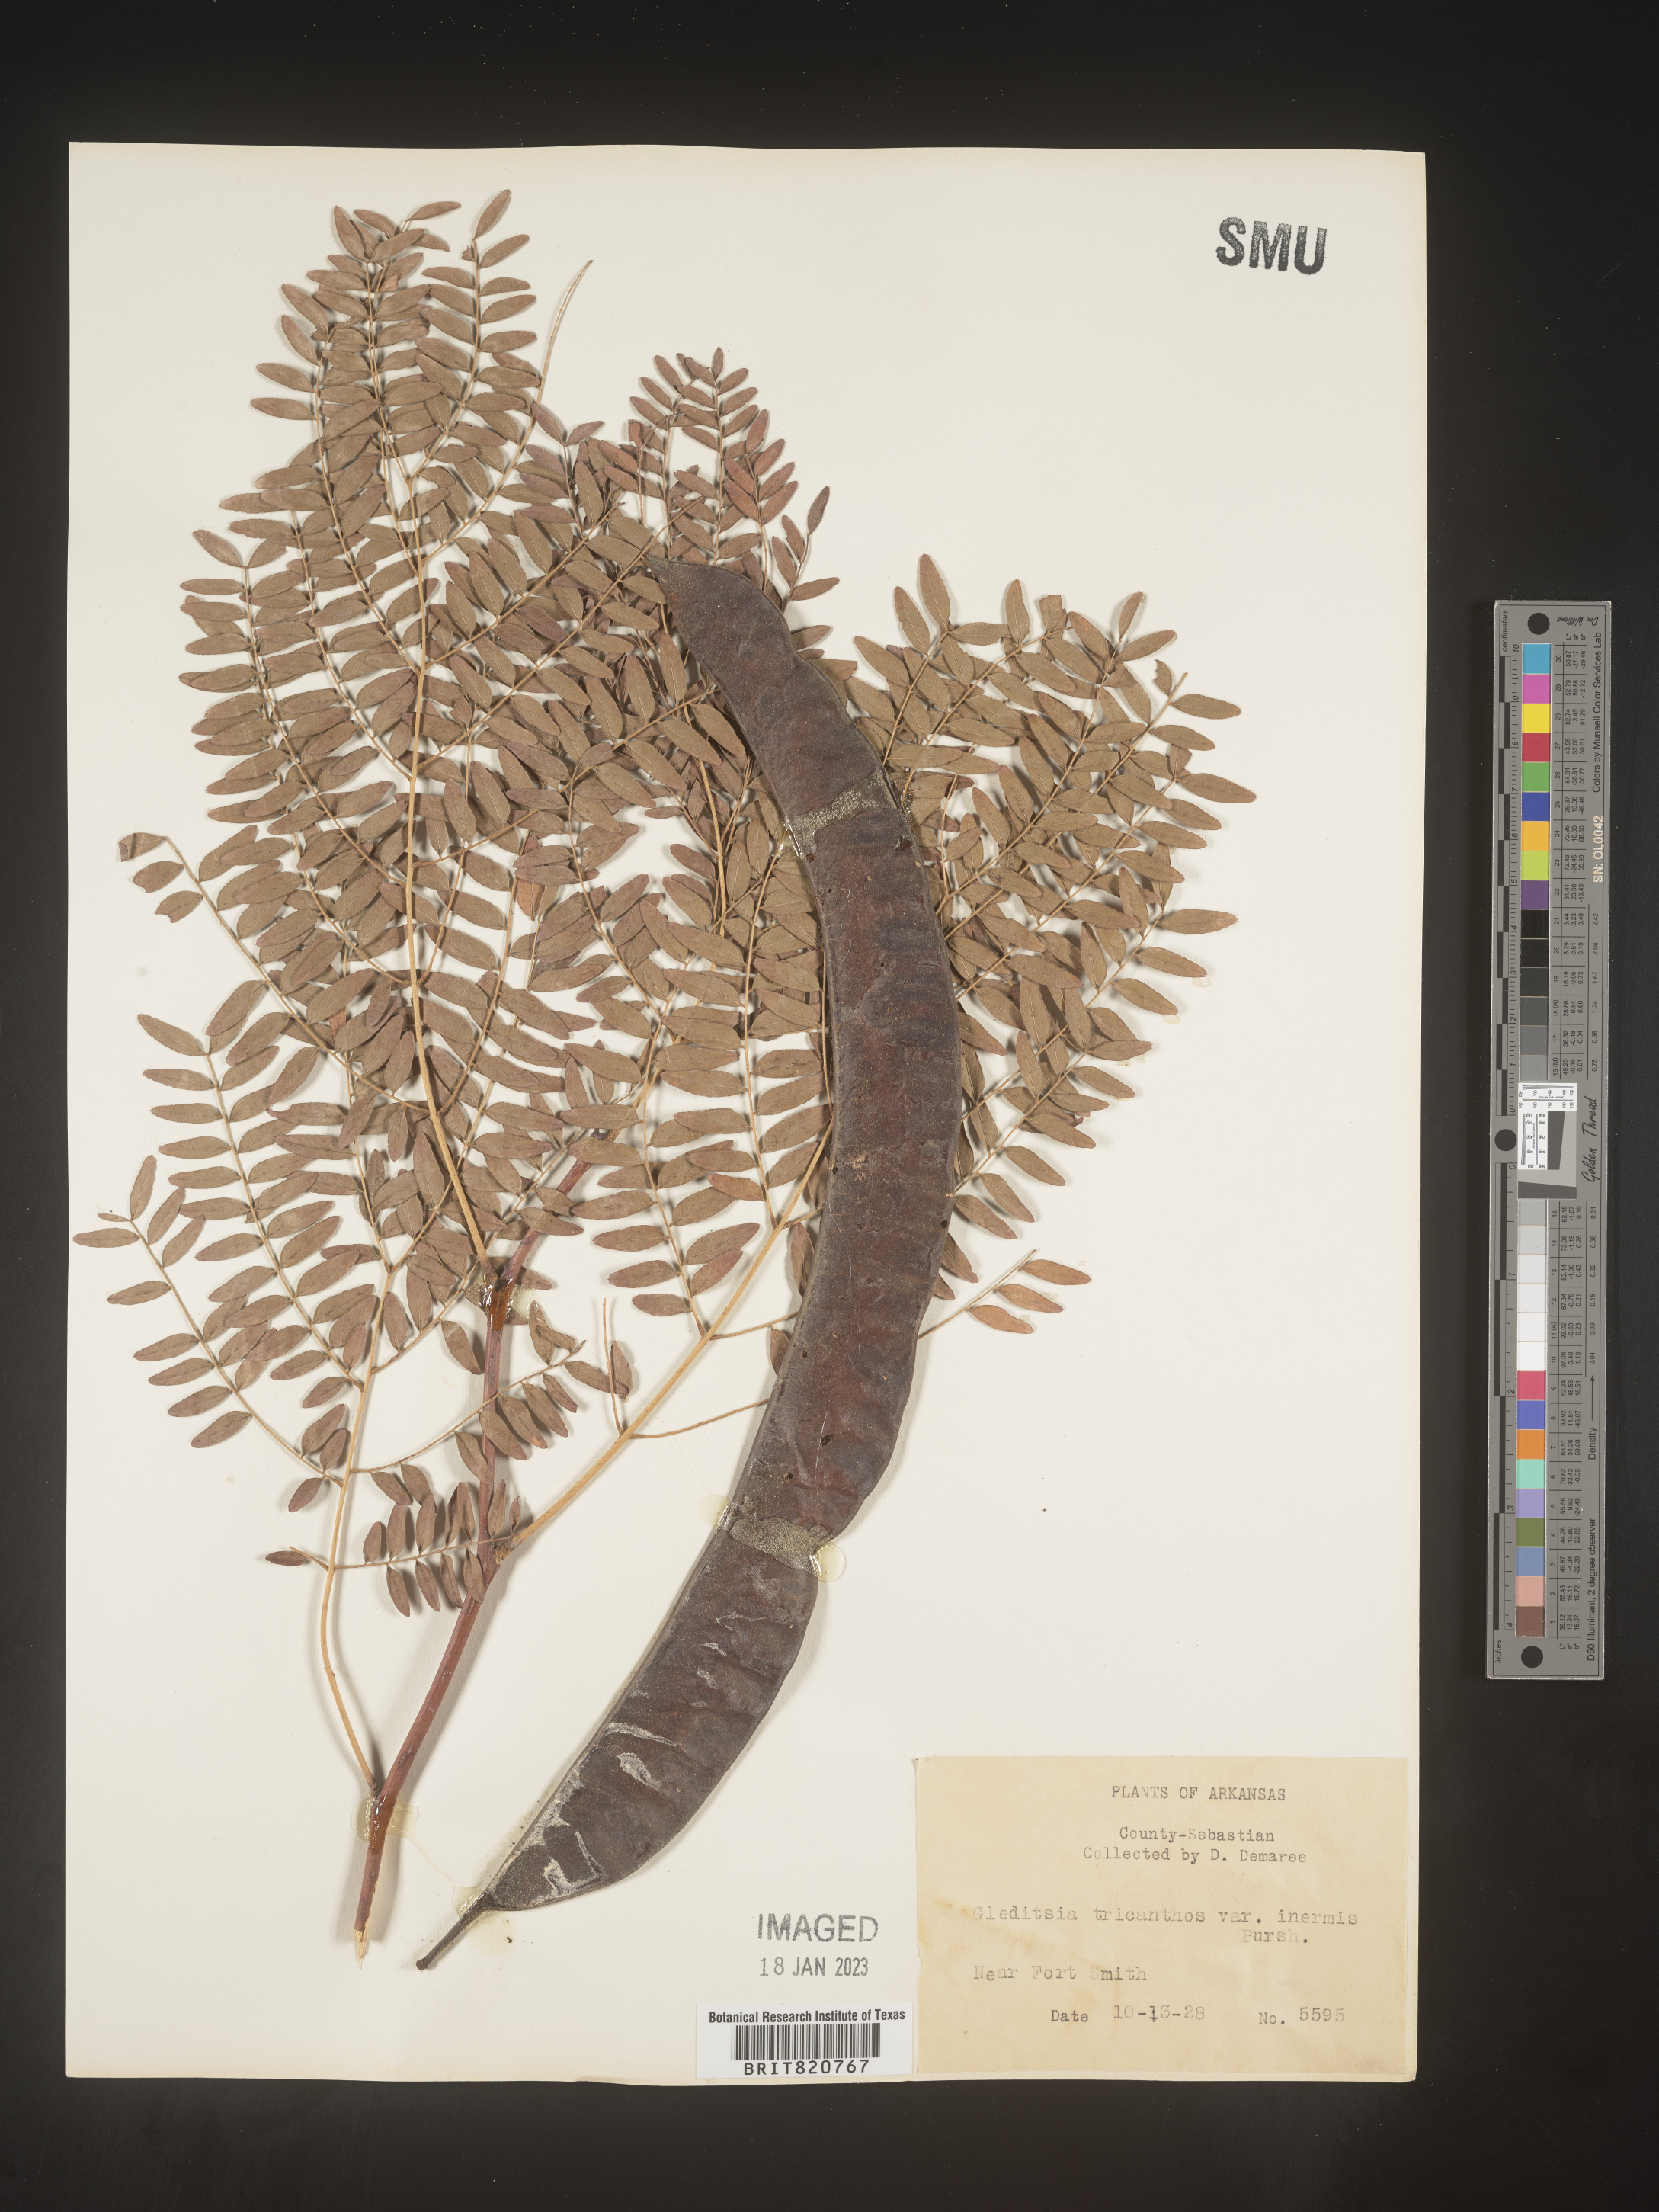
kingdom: Plantae
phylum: Tracheophyta
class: Magnoliopsida
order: Fabales
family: Fabaceae
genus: Gleditsia
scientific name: Gleditsia triacanthos
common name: Common honeylocust
